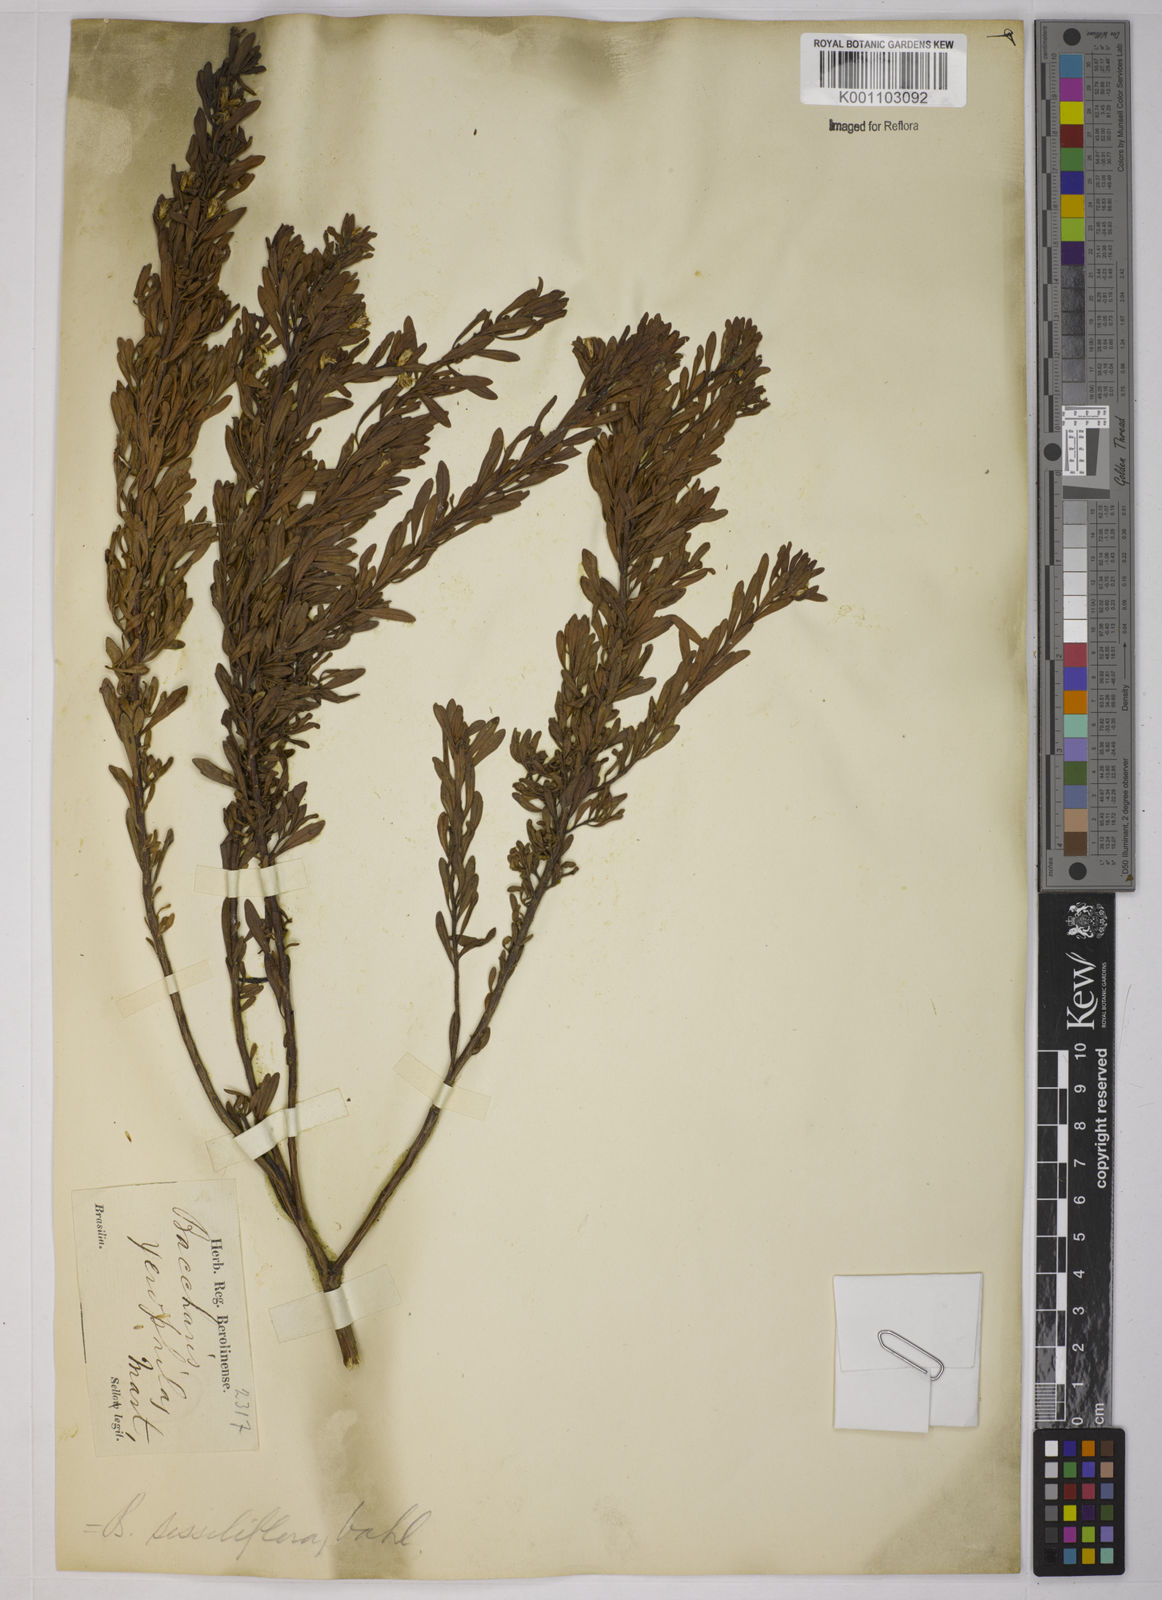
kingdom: Plantae
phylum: Tracheophyta
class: Magnoliopsida
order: Asterales
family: Asteraceae
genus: Baccharis
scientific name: Baccharis sessiliflora
